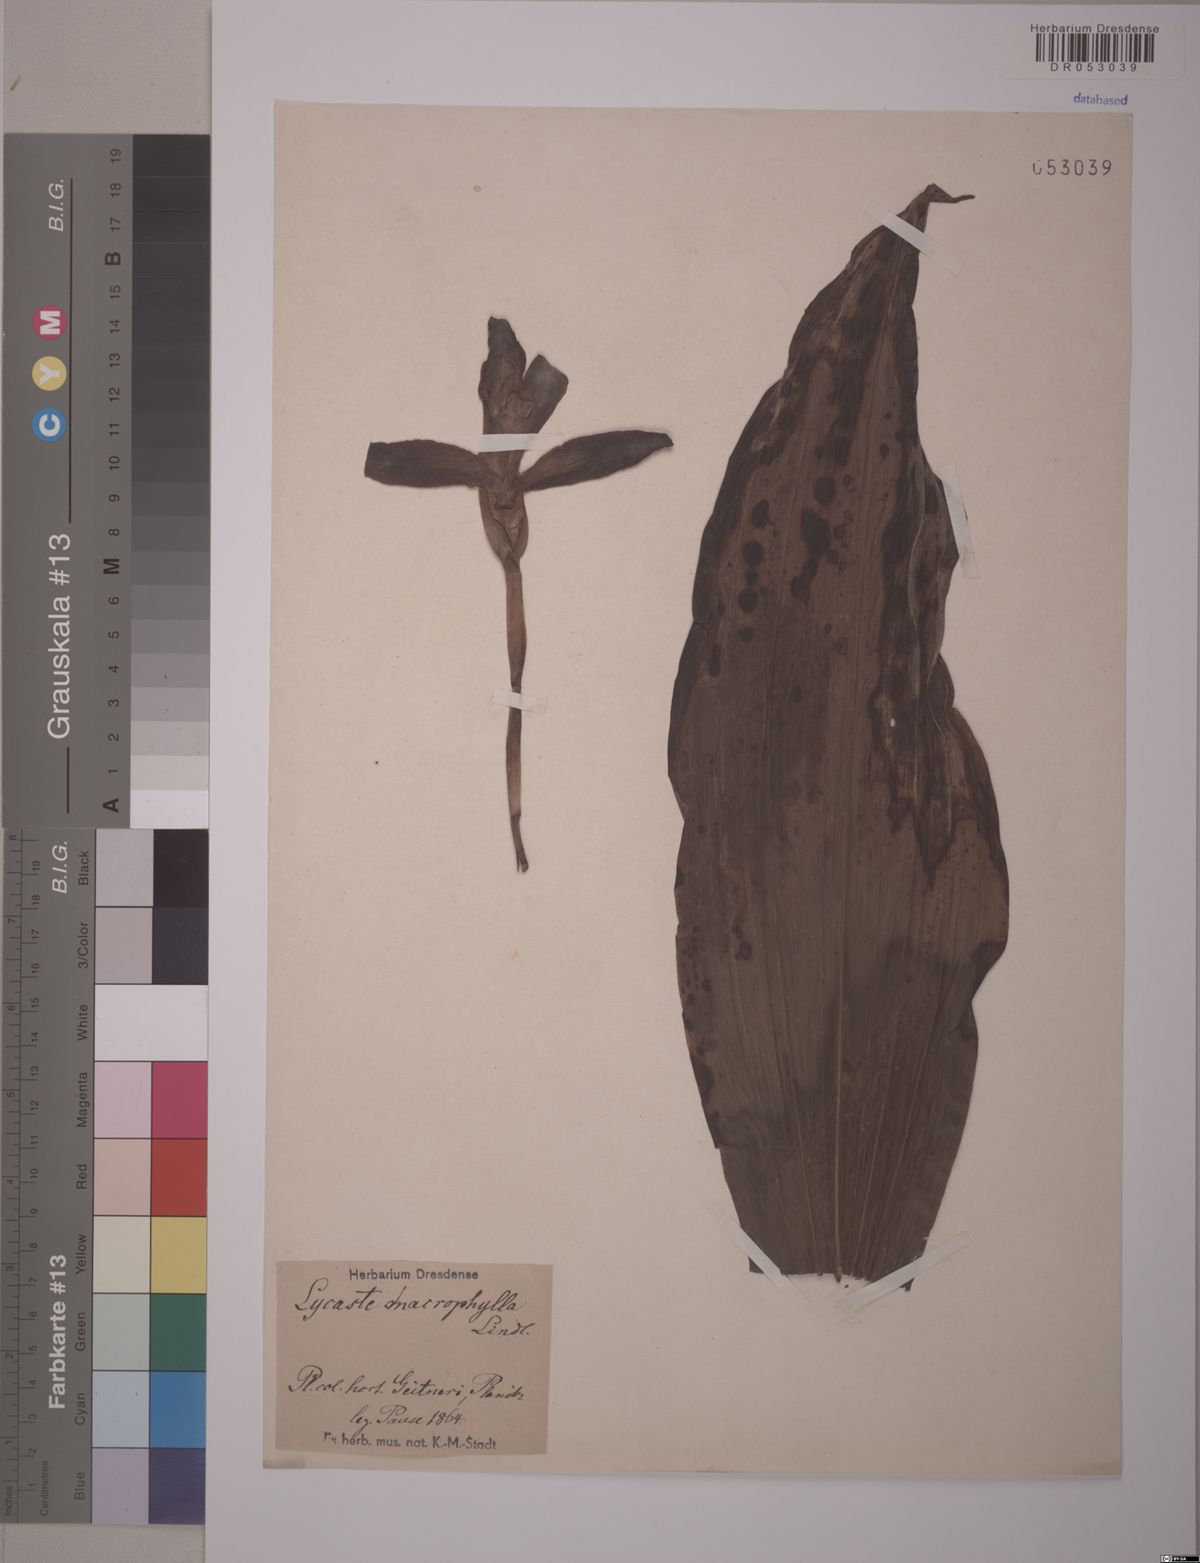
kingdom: Plantae
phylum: Tracheophyta
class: Liliopsida
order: Asparagales
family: Orchidaceae
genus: Lycaste
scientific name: Lycaste macrophylla
